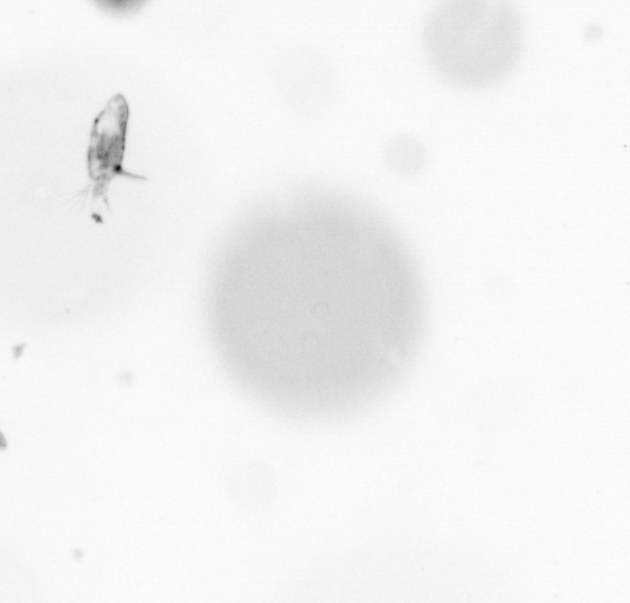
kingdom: Animalia
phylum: Arthropoda
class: Copepoda
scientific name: Copepoda
